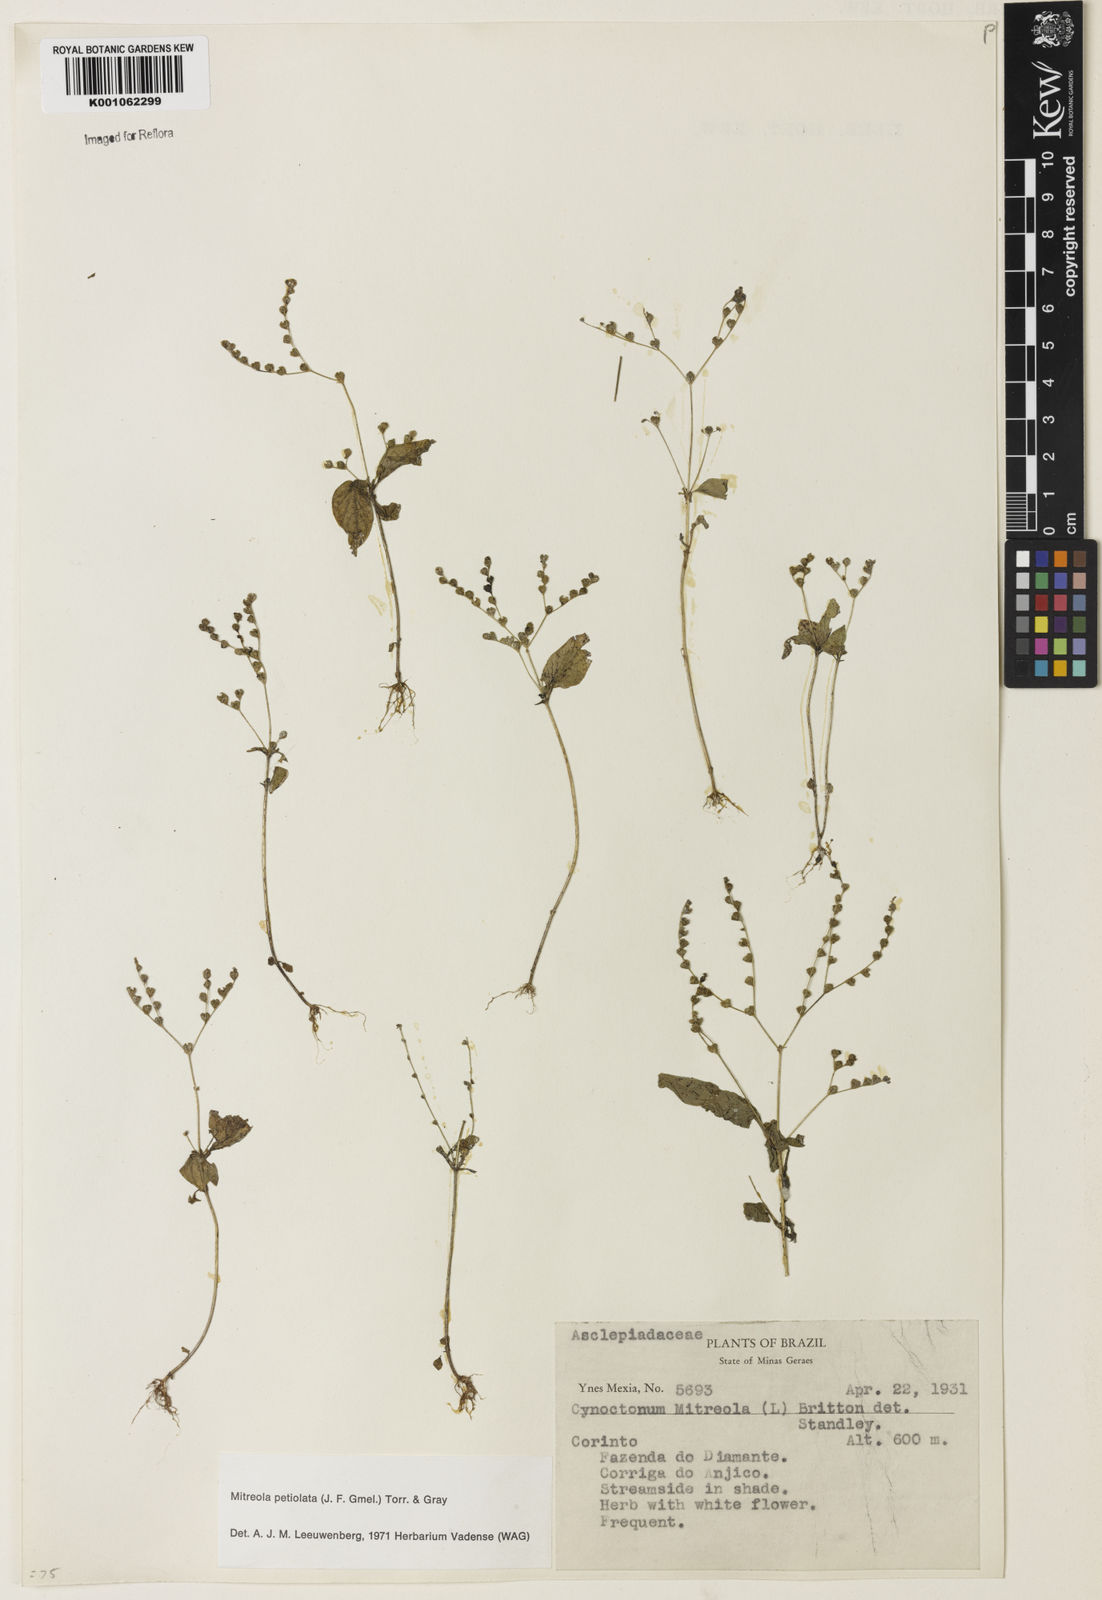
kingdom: Plantae
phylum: Tracheophyta
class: Magnoliopsida
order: Gentianales
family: Loganiaceae
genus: Mitreola
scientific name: Mitreola petiolata
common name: Lax hornpod
